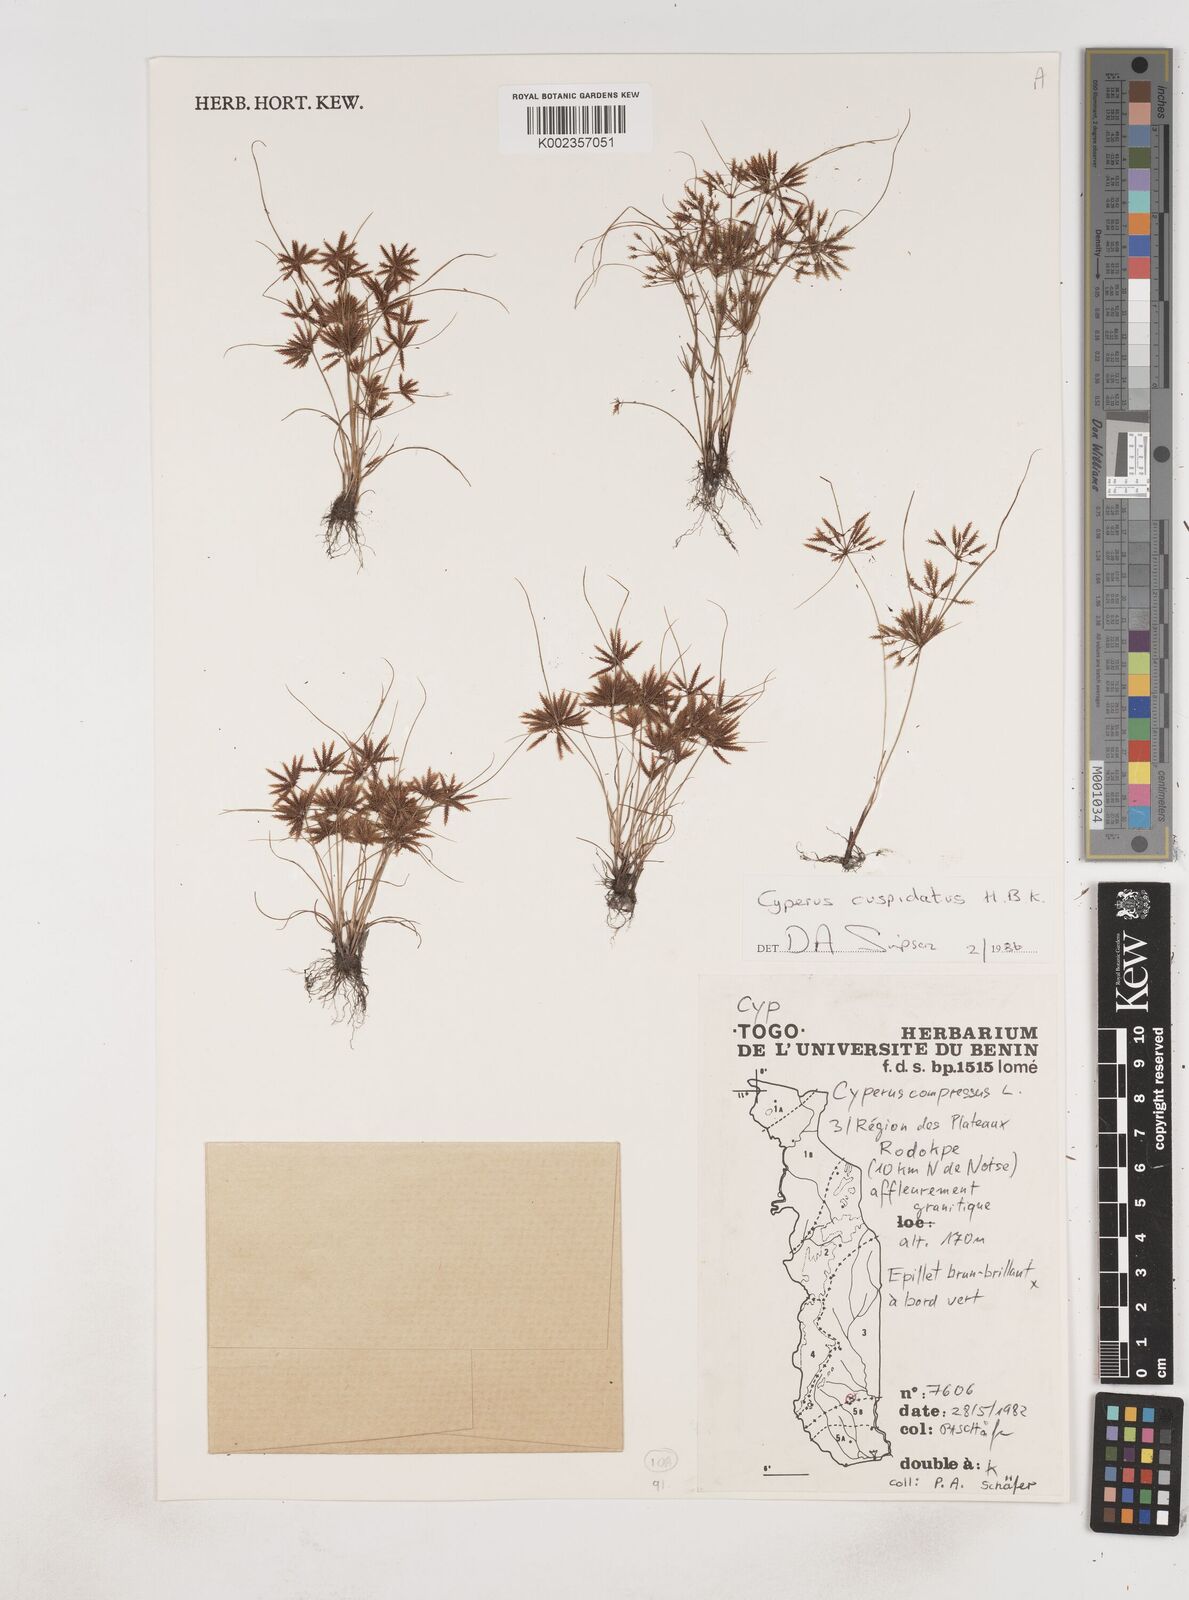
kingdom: Plantae
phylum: Tracheophyta
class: Liliopsida
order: Poales
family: Cyperaceae
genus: Cyperus
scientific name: Cyperus
